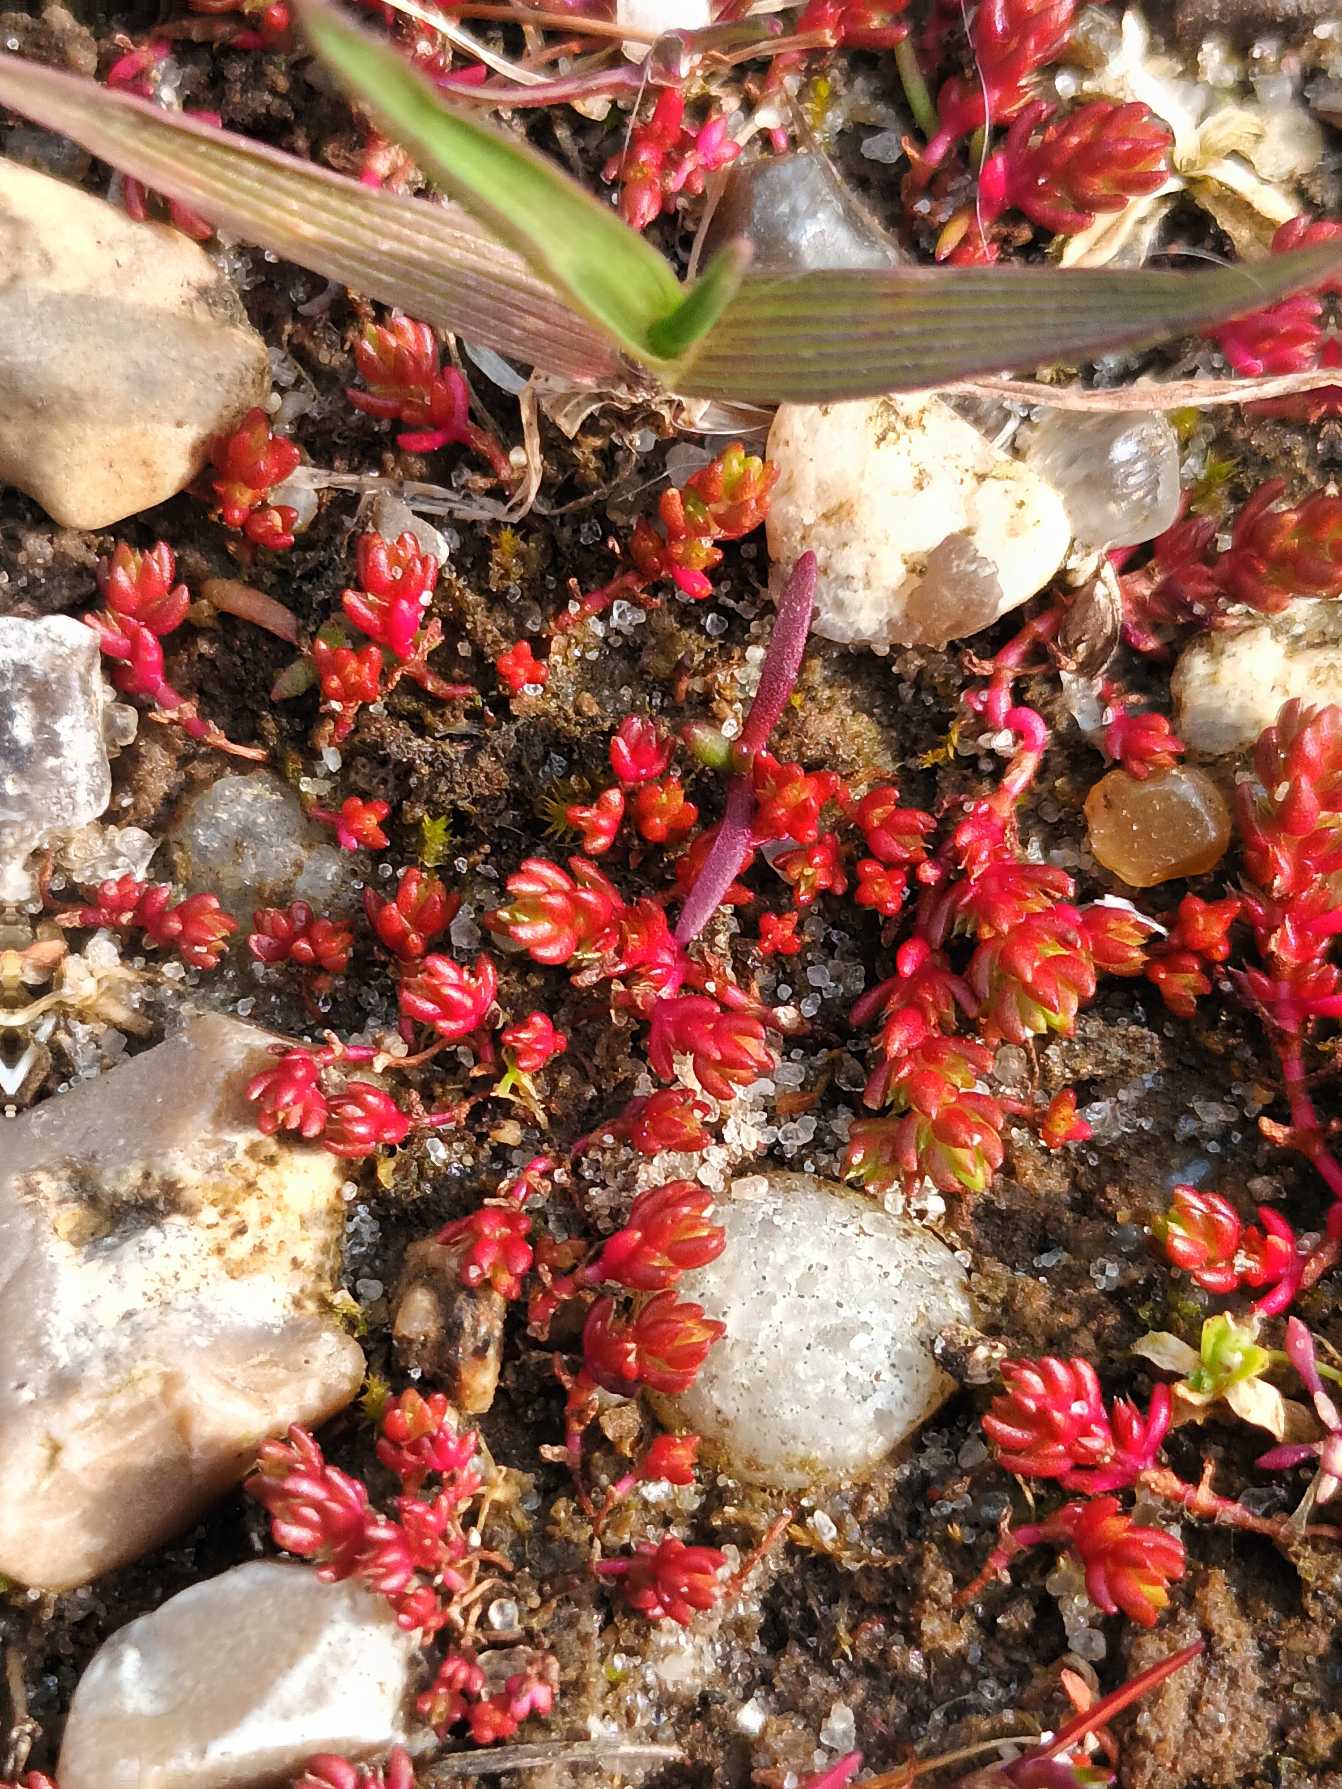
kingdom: Plantae
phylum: Tracheophyta
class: Magnoliopsida
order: Saxifragales
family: Crassulaceae
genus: Crassula
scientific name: Crassula tillaea
